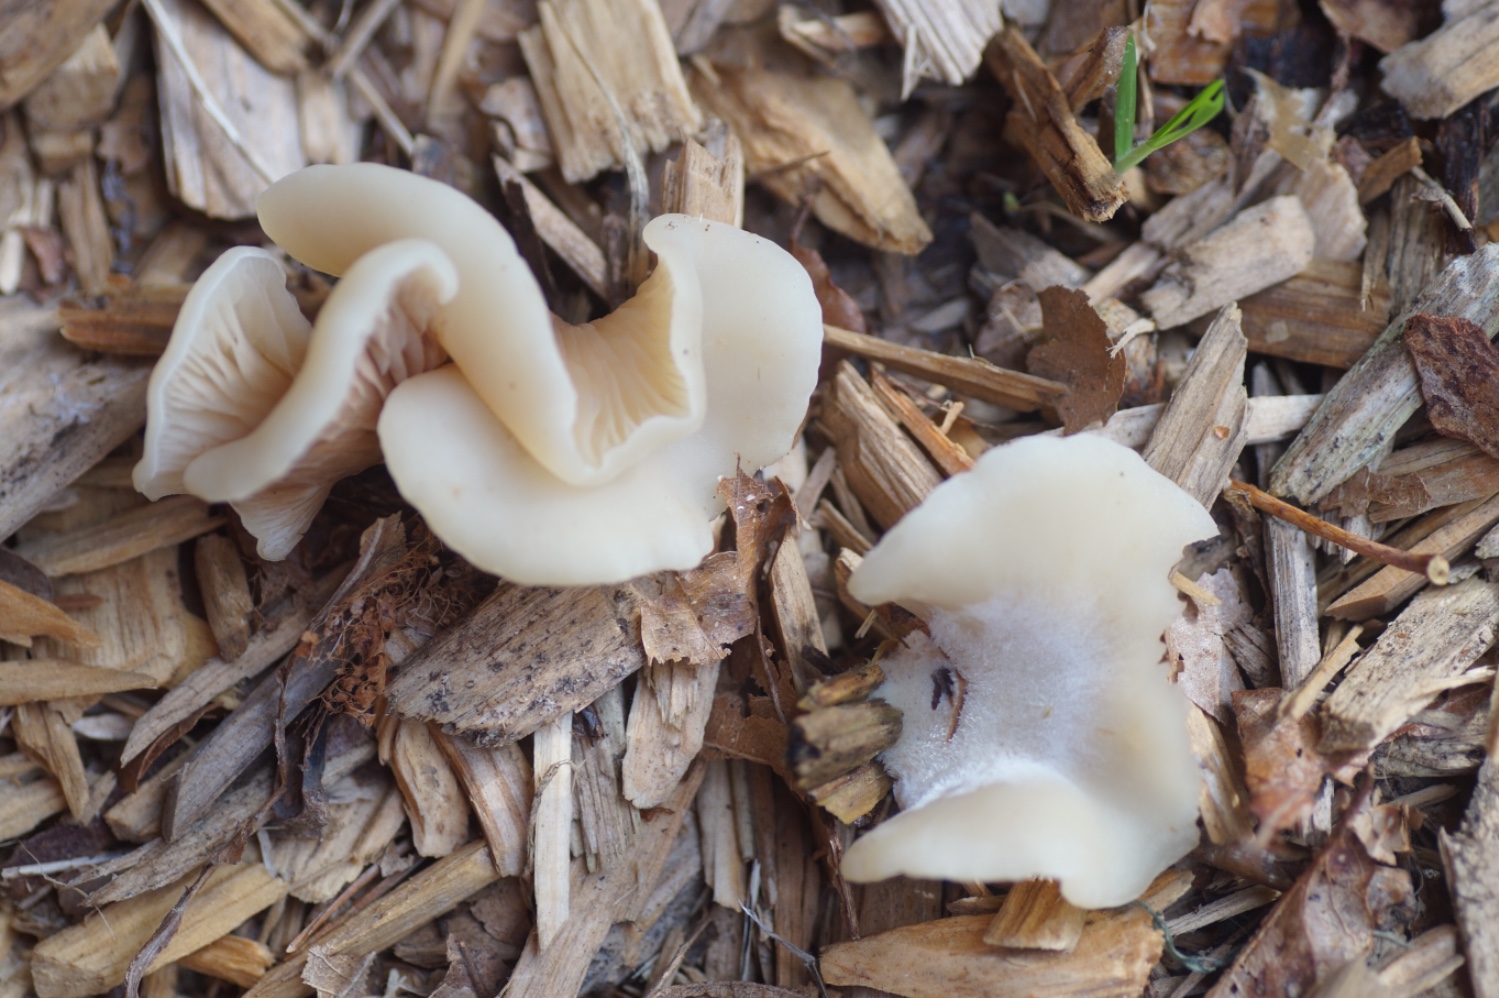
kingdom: Fungi
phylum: Basidiomycota
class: Agaricomycetes
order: Agaricales
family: Crepidotaceae
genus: Crepidotus
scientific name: Crepidotus
